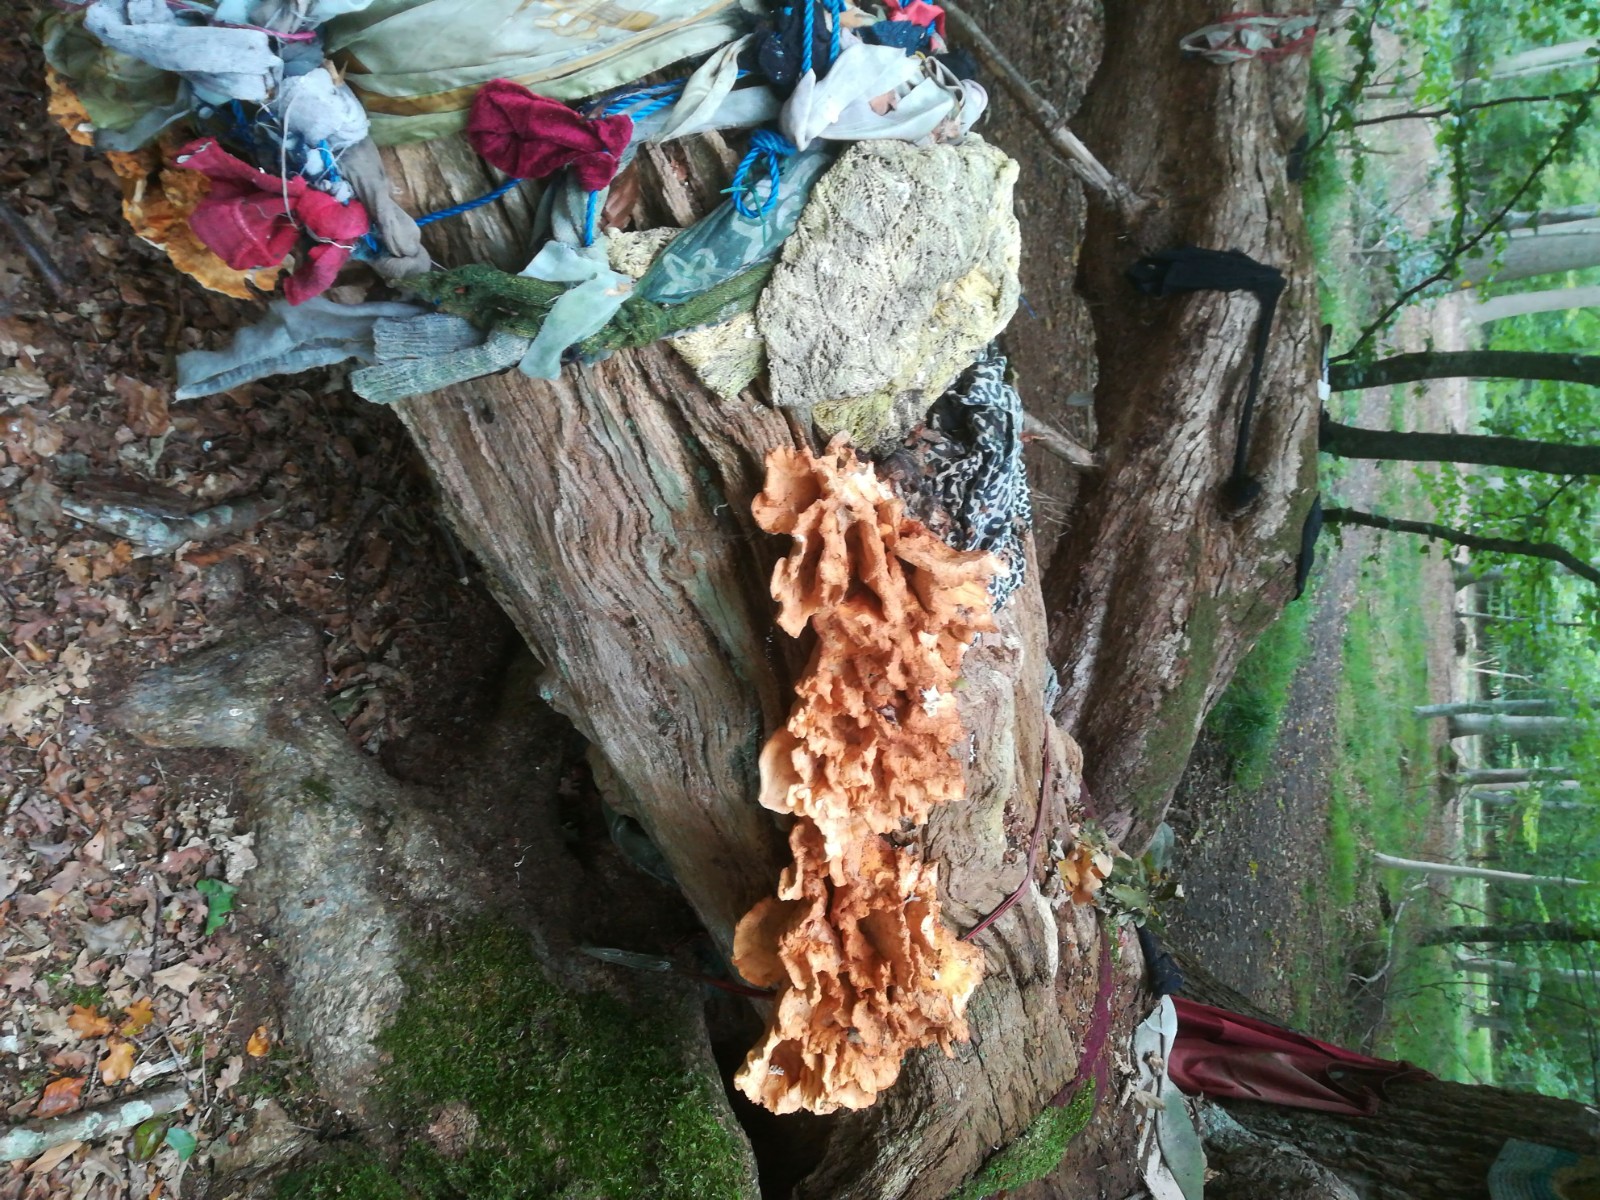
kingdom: Fungi
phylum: Basidiomycota
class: Agaricomycetes
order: Polyporales
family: Laetiporaceae
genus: Laetiporus
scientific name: Laetiporus sulphureus
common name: svovlporesvamp
